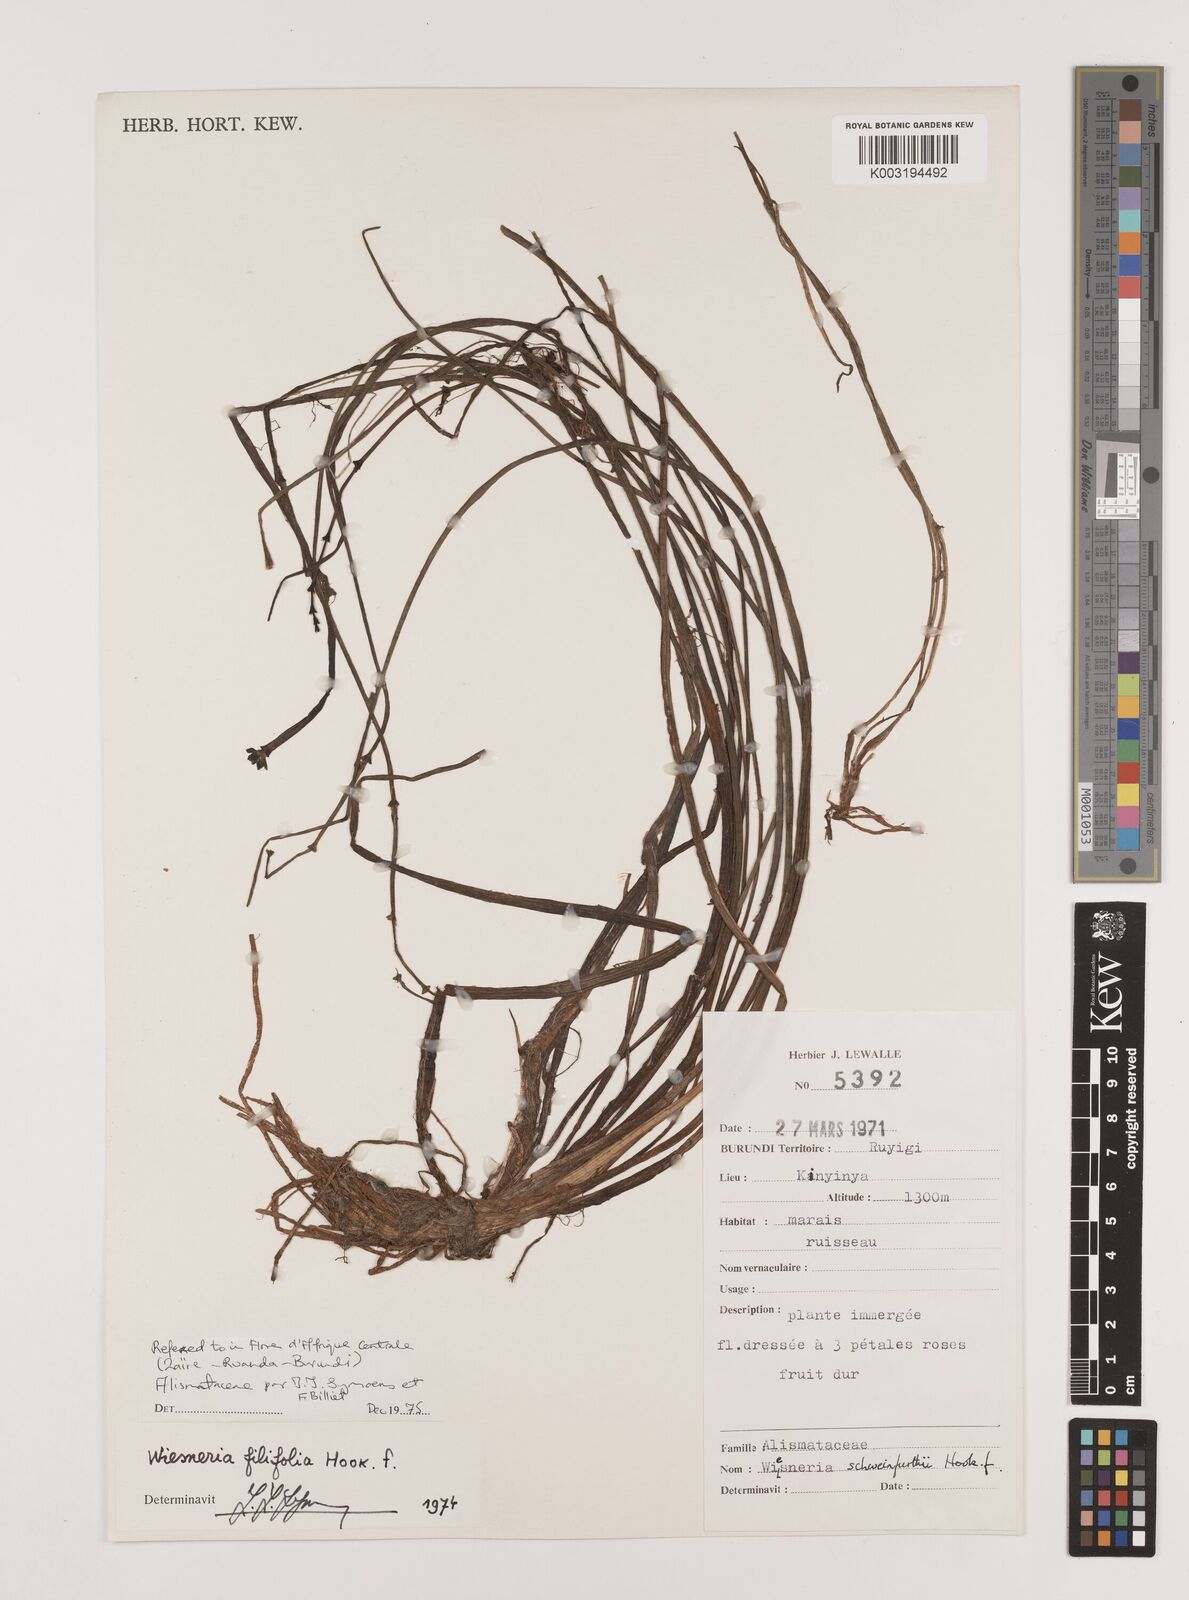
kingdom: Plantae
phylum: Tracheophyta
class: Liliopsida
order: Alismatales
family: Alismataceae
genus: Wiesneria
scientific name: Wiesneria filifolia
